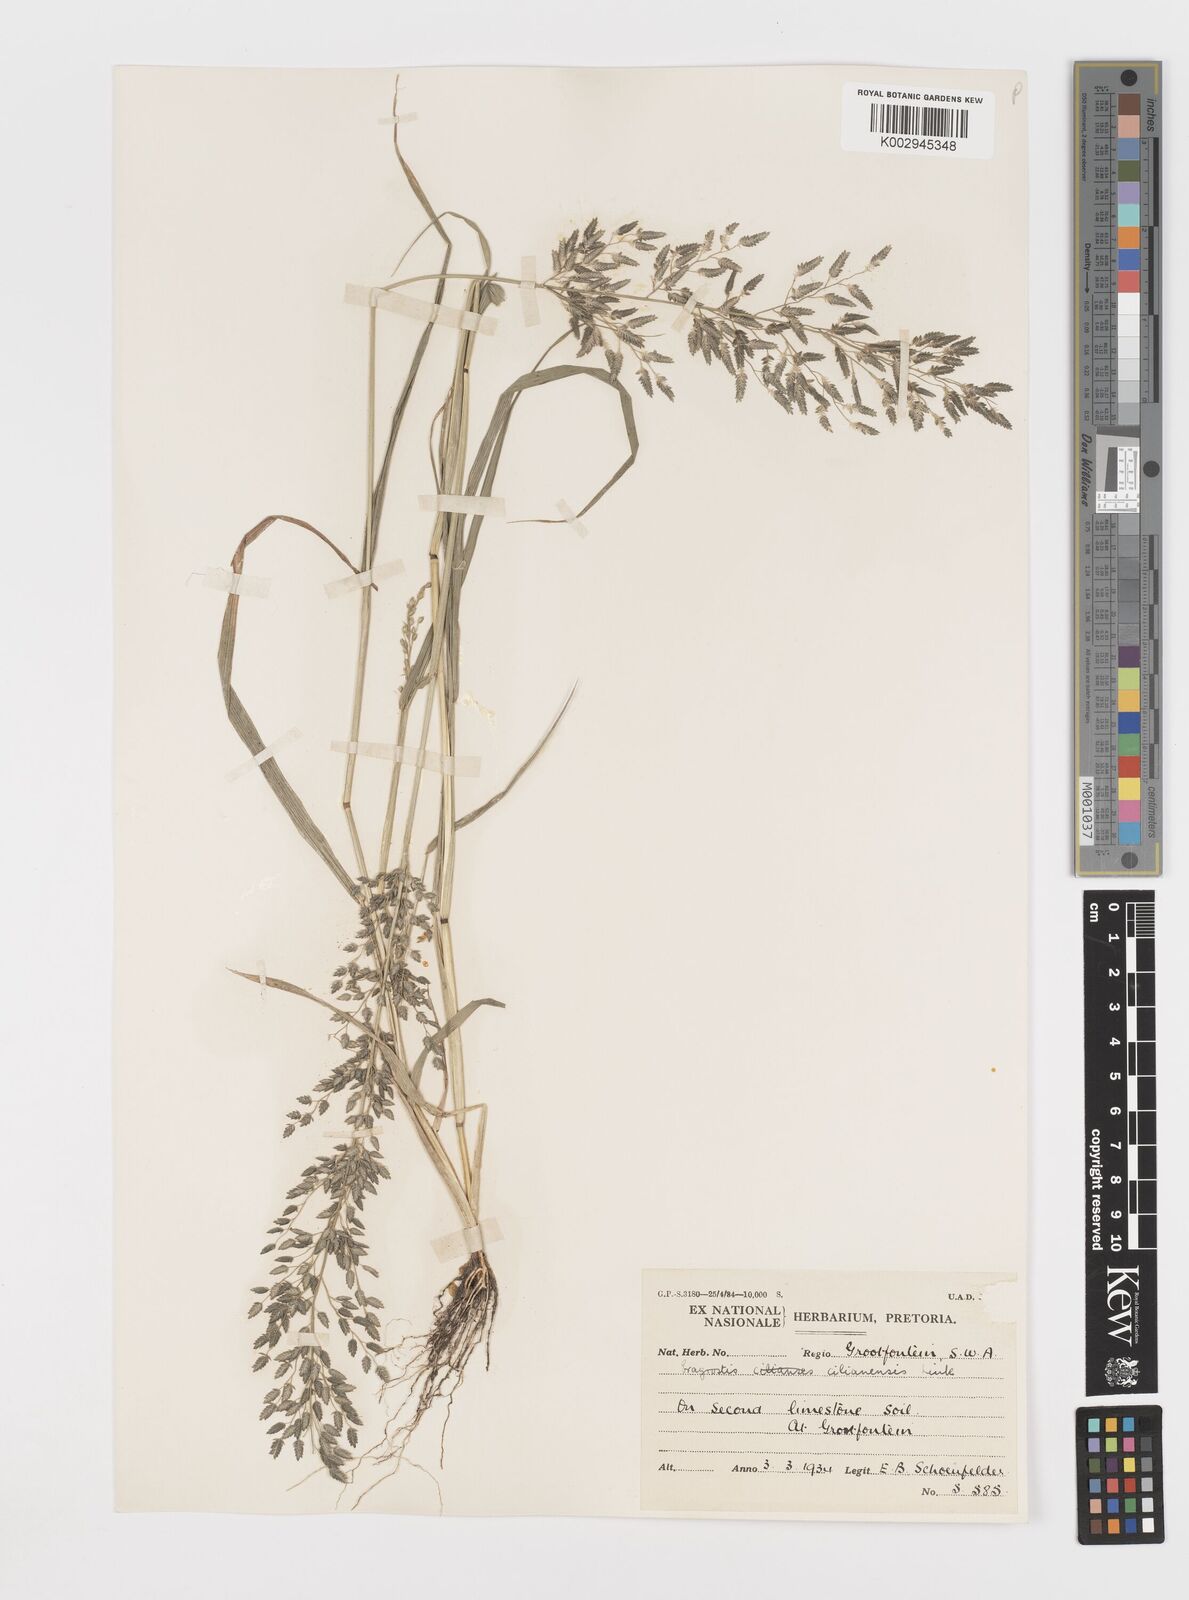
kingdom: Plantae
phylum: Tracheophyta
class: Liliopsida
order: Poales
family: Poaceae
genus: Eragrostis
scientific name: Eragrostis cilianensis
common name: Stinkgrass
